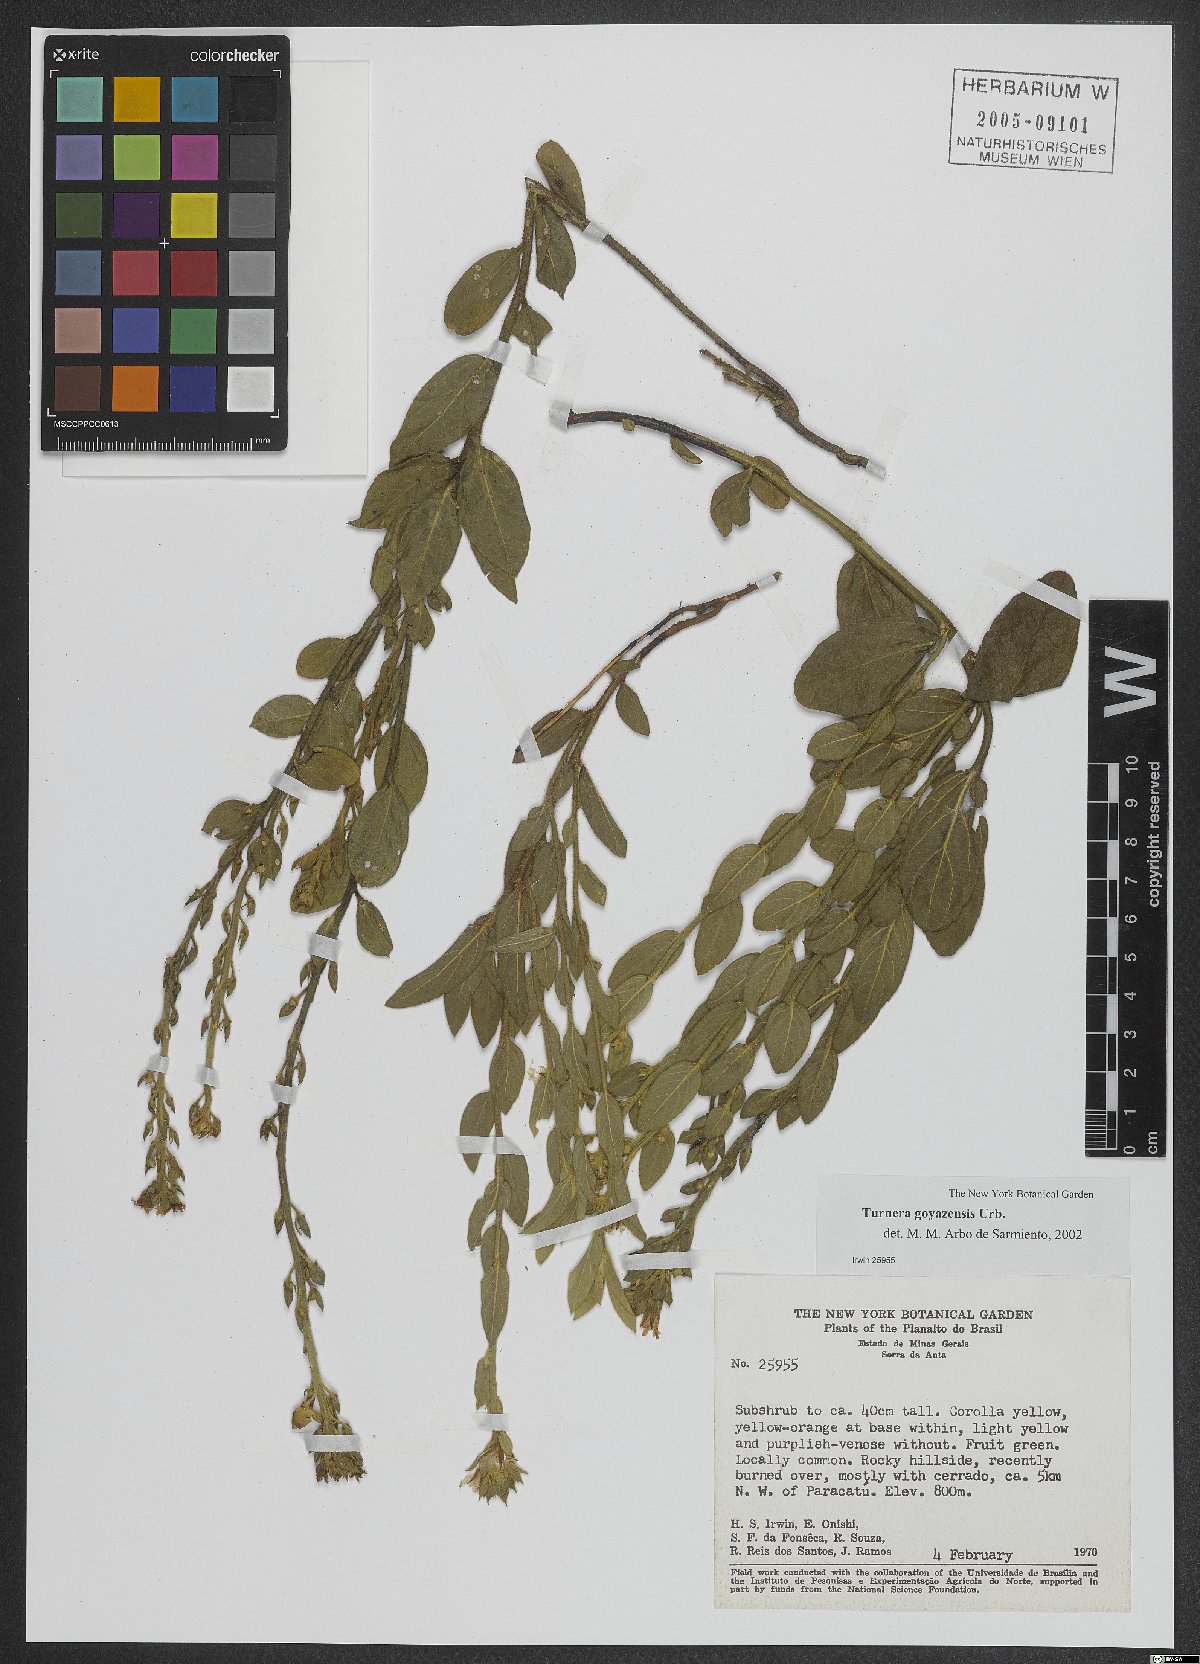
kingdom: Plantae
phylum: Tracheophyta
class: Magnoliopsida
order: Malpighiales
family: Turneraceae
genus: Turnera
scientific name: Turnera oblongifolia
